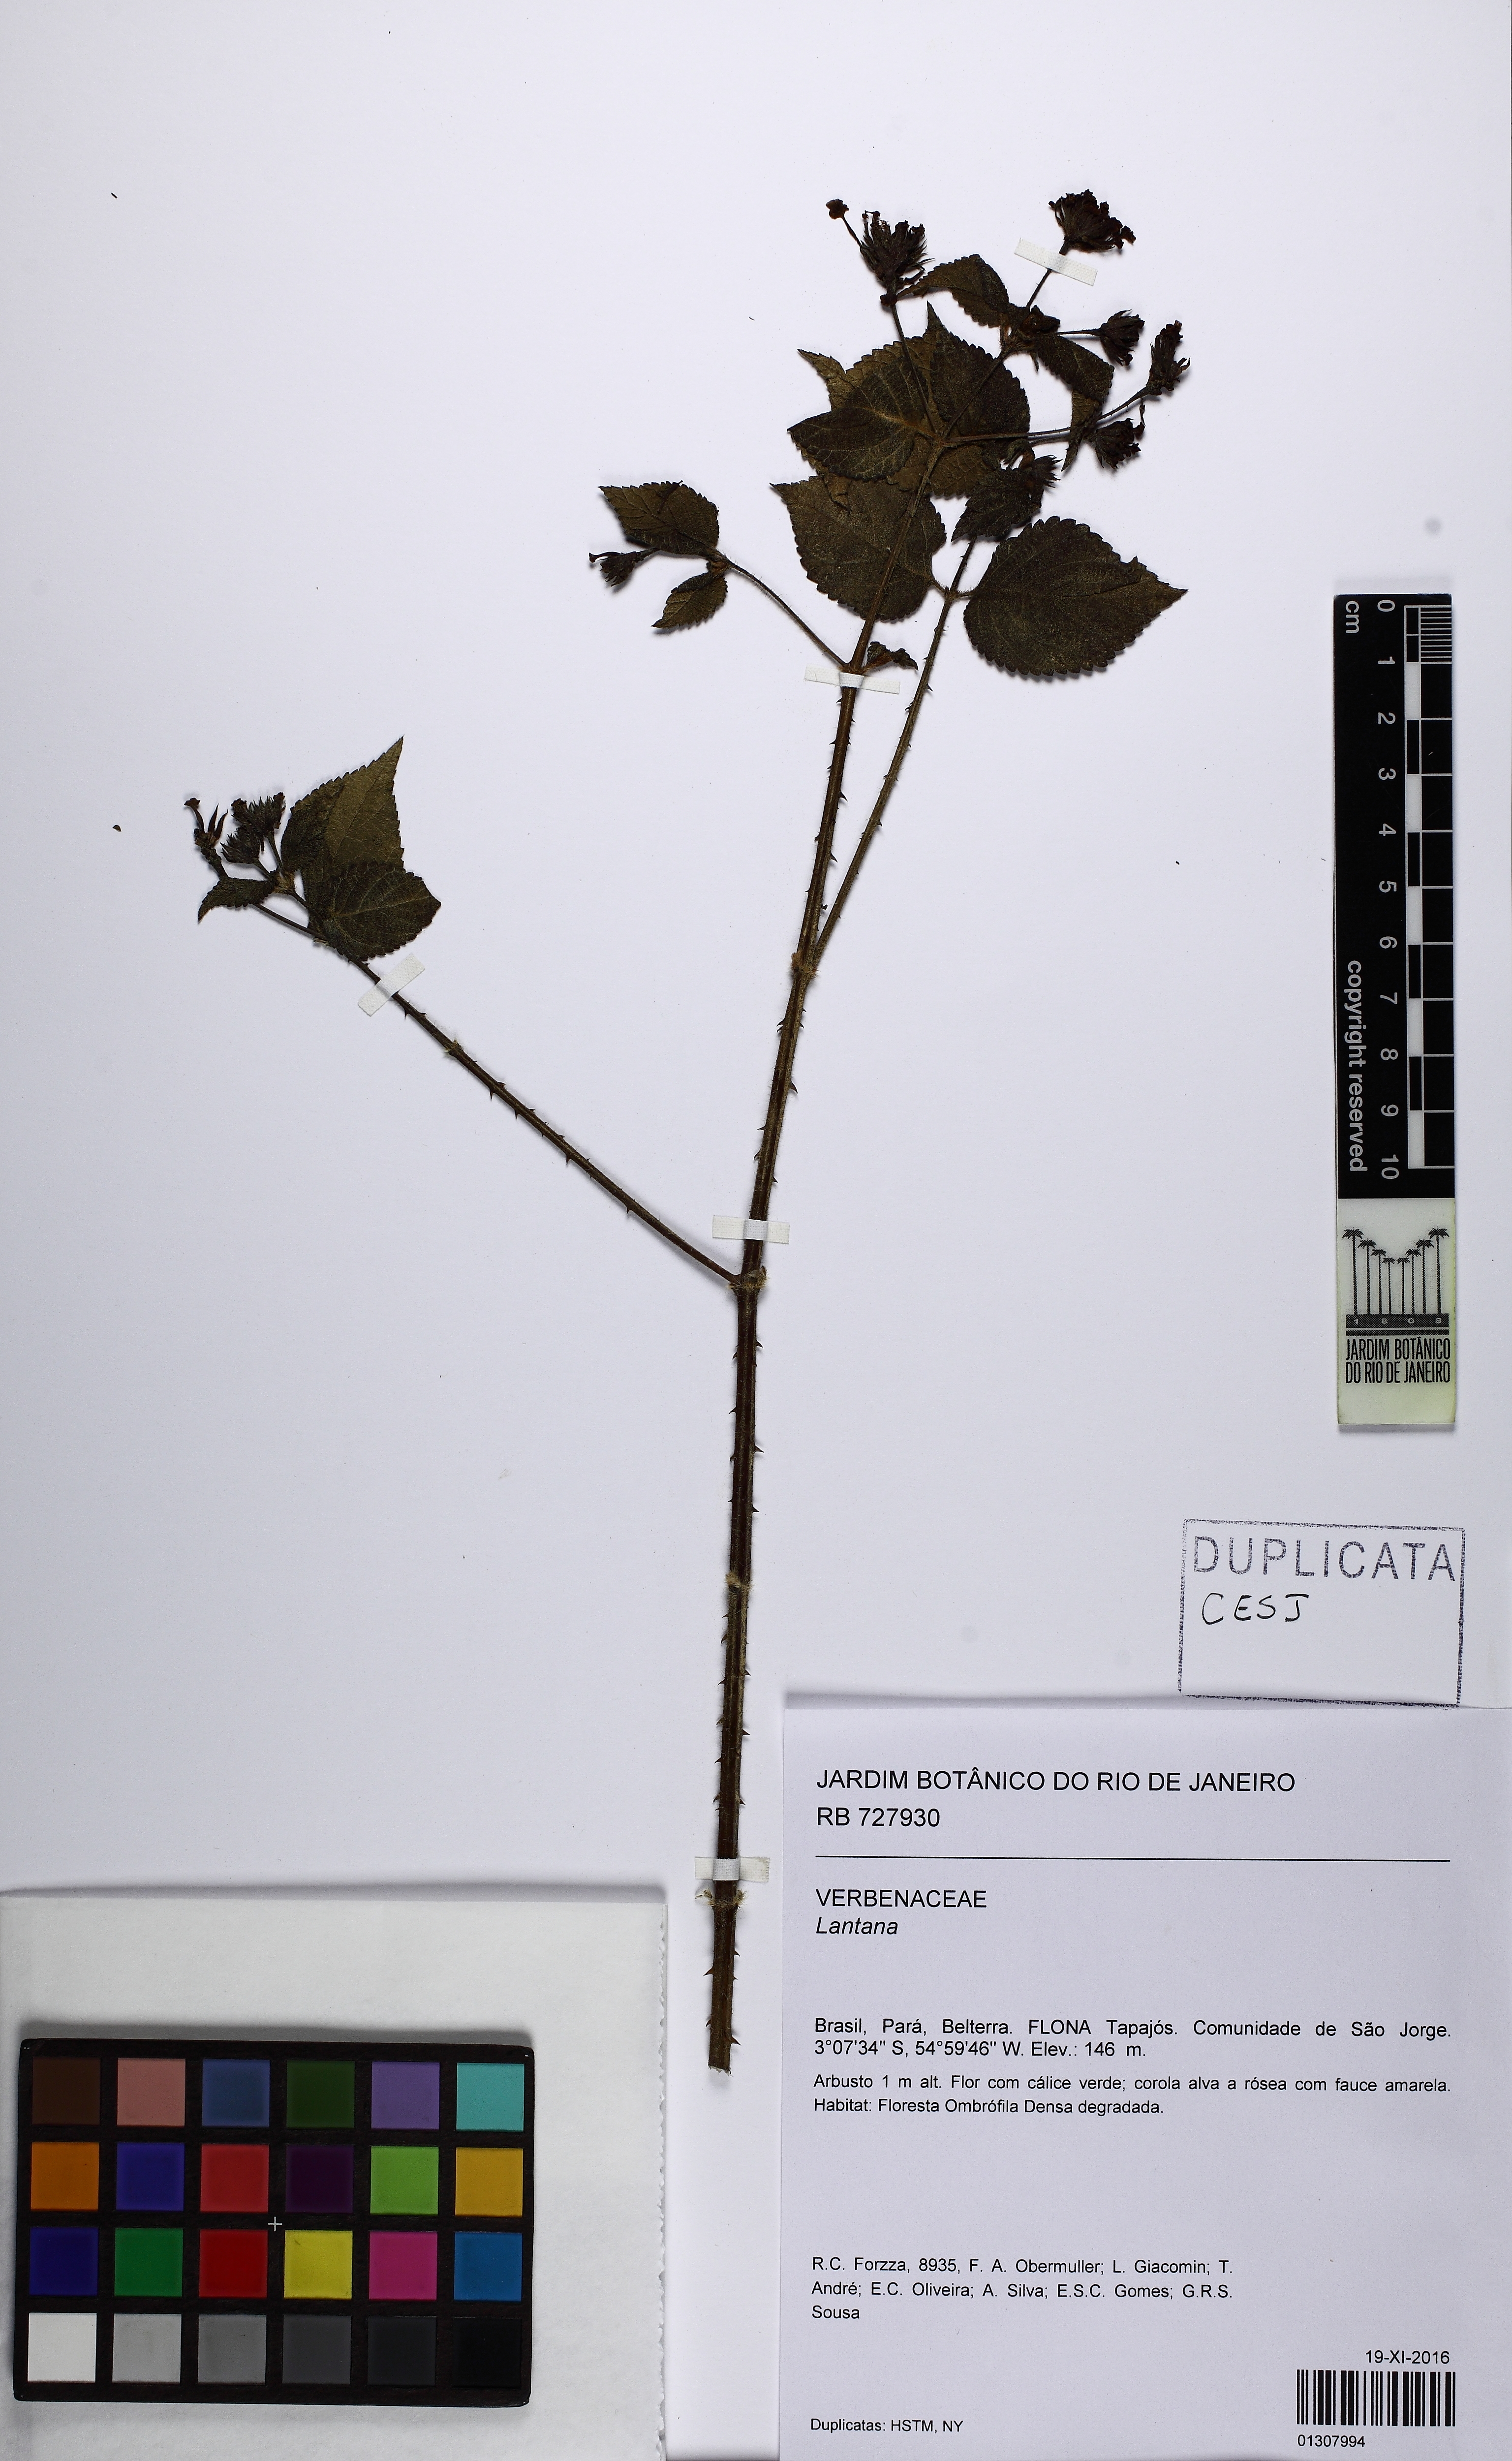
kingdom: Plantae
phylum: Tracheophyta
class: Magnoliopsida
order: Lamiales
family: Verbenaceae
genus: Lantana
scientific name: Lantana
